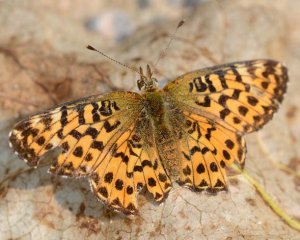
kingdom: Animalia
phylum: Arthropoda
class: Insecta
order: Lepidoptera
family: Nymphalidae
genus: Boloria
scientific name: Boloria chariclea
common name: Arctic Fritillary
